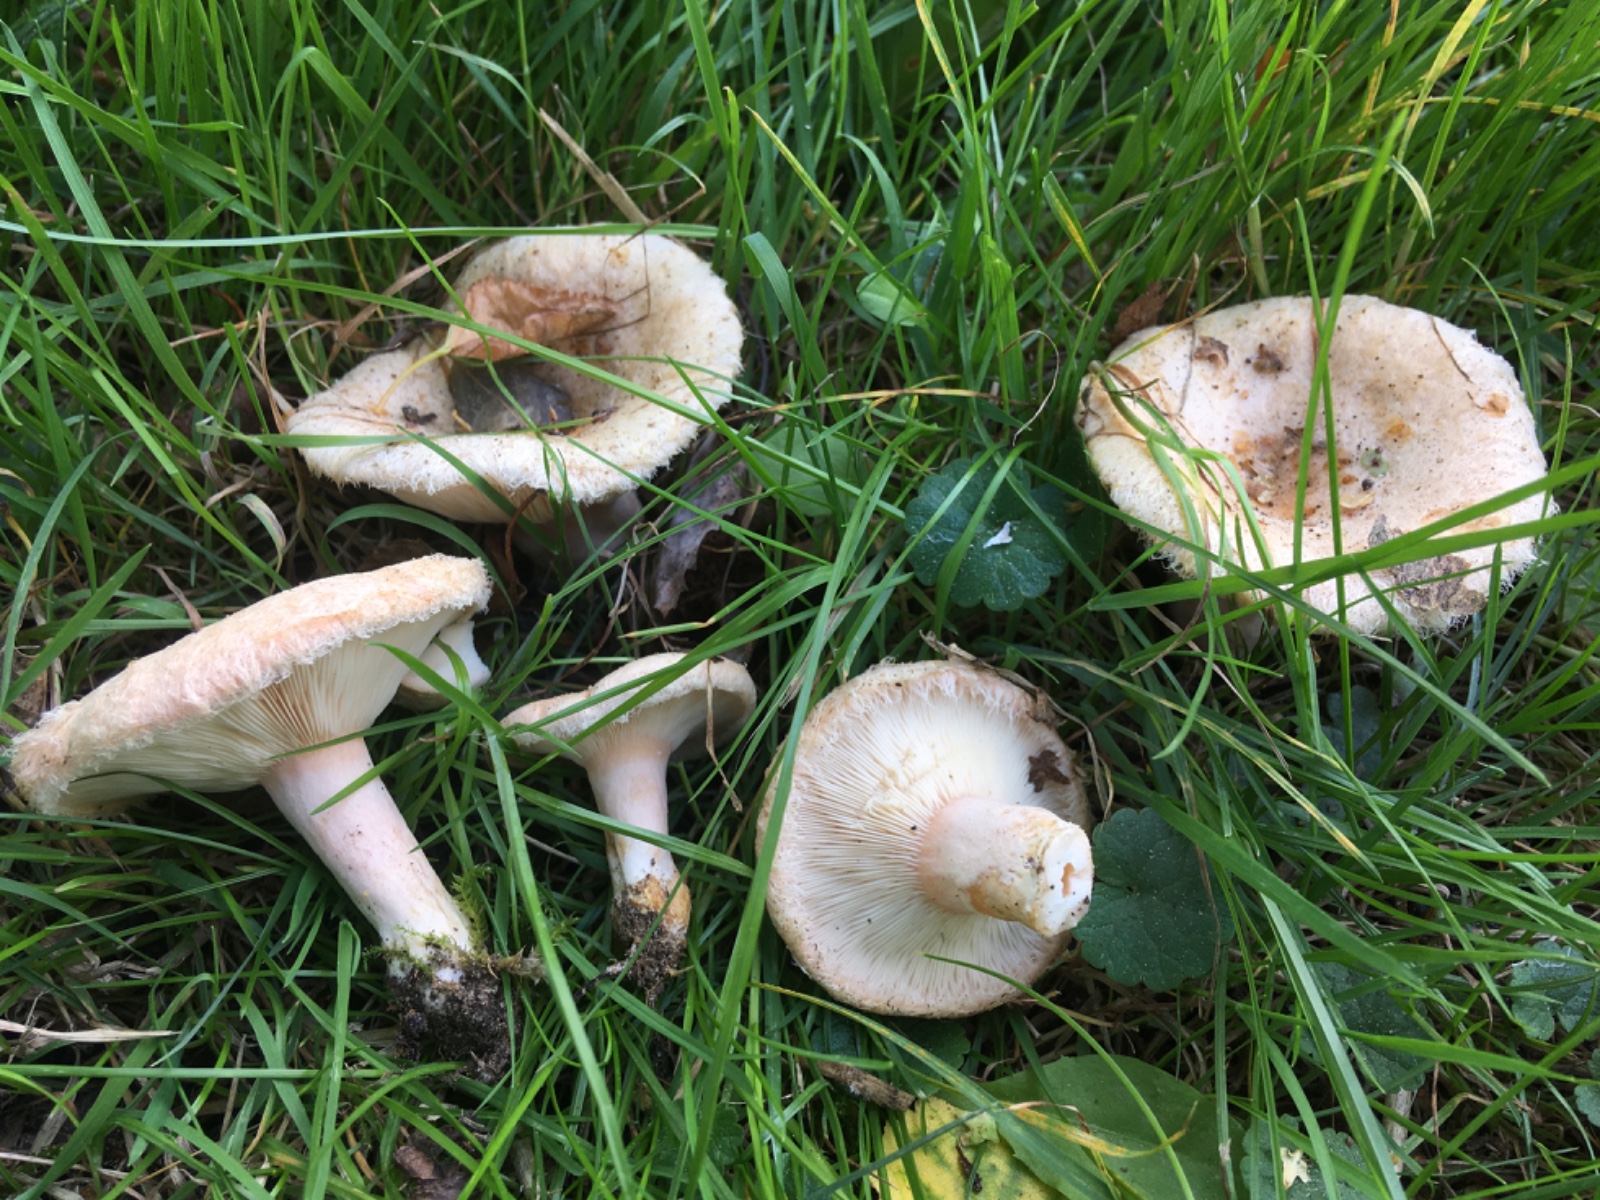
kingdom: Fungi
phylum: Basidiomycota
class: Agaricomycetes
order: Russulales
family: Russulaceae
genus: Lactarius
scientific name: Lactarius torminosus
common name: skægget mælkehat
